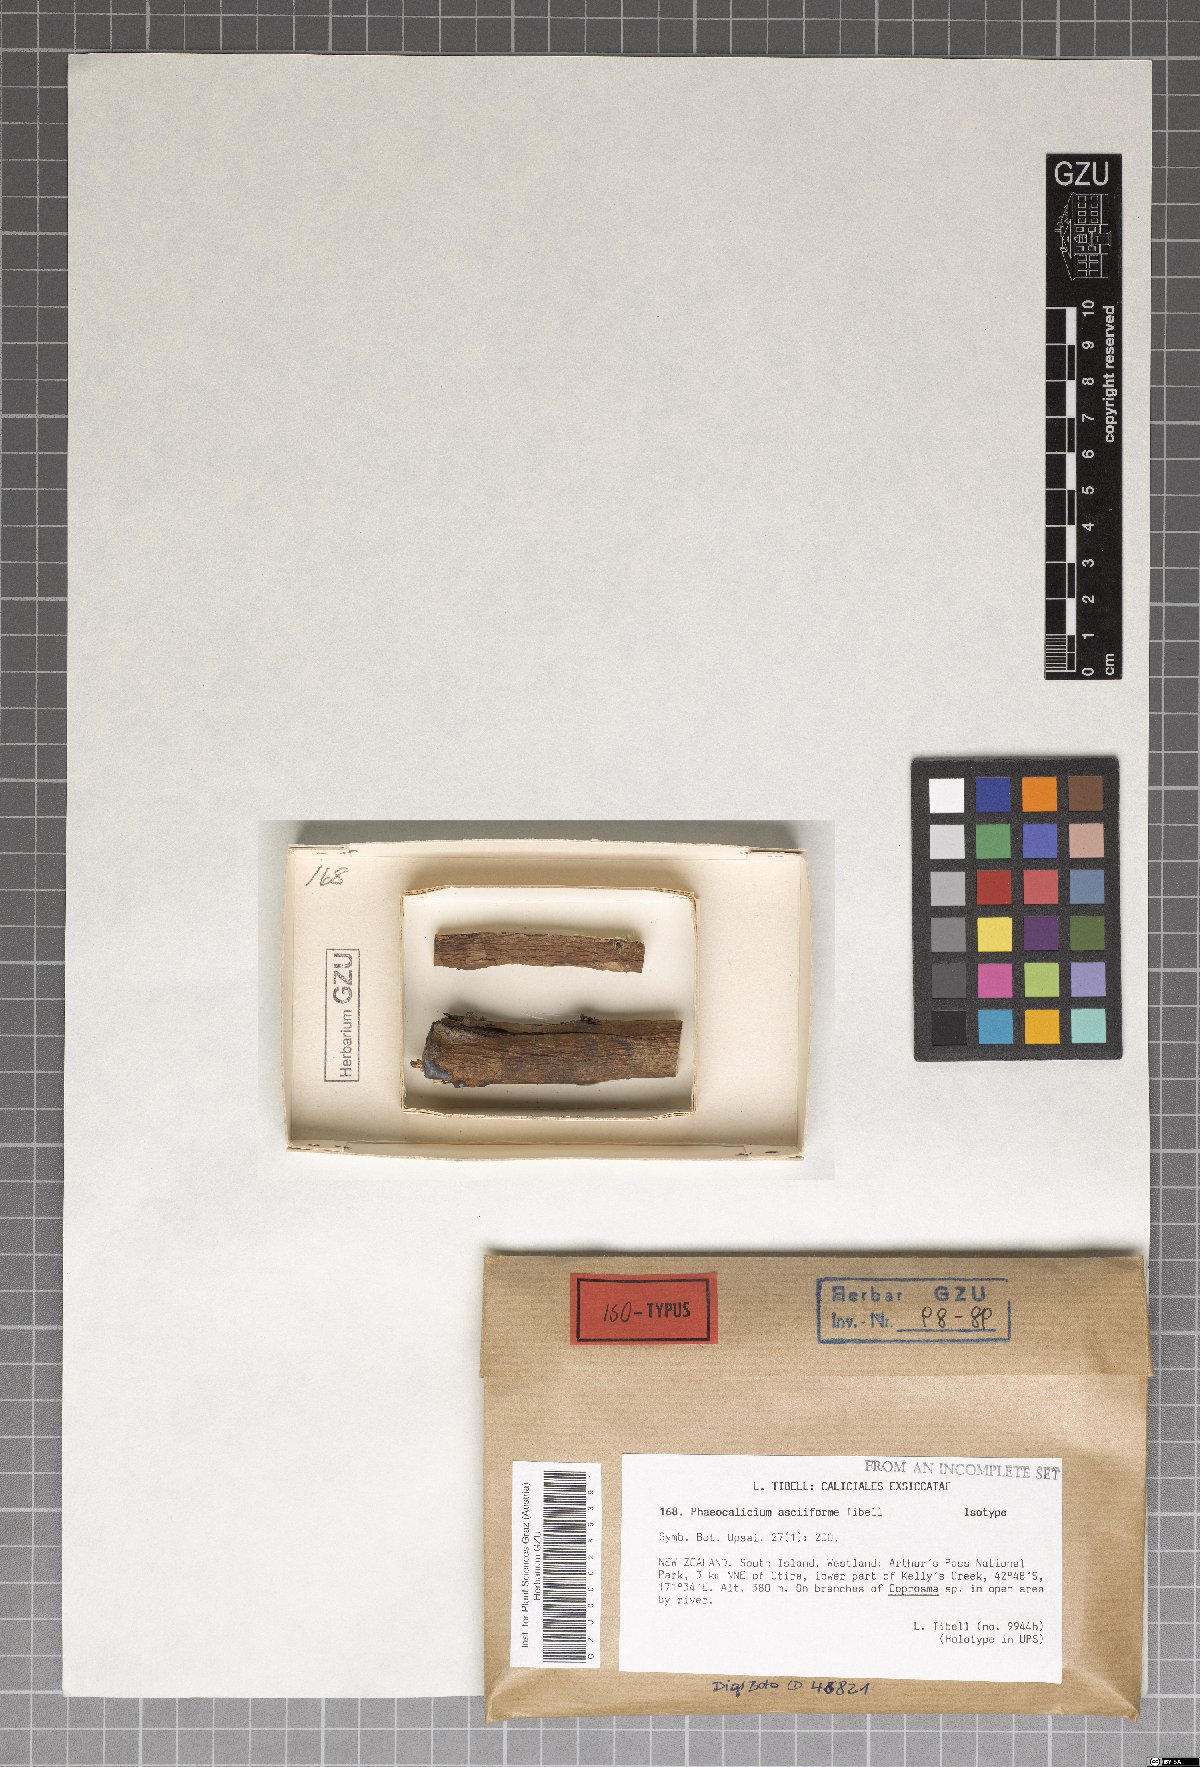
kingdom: Fungi
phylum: Ascomycota
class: Eurotiomycetes
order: Mycocaliciales
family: Mycocaliciaceae
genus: Phaeocalicium
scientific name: Phaeocalicium asciiforme
